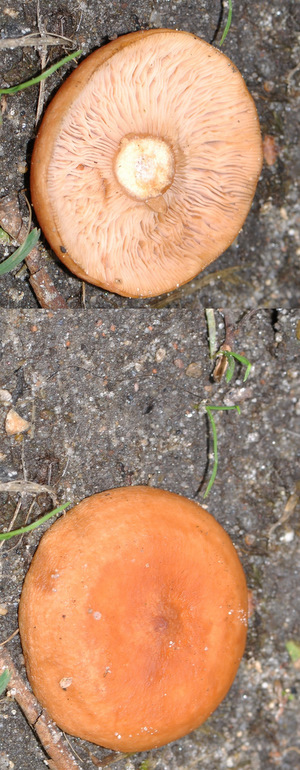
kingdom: Fungi
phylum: Basidiomycota
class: Agaricomycetes
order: Russulales
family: Russulaceae
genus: Lactarius
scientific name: Lactarius tabidus
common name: rynket mælkehat
